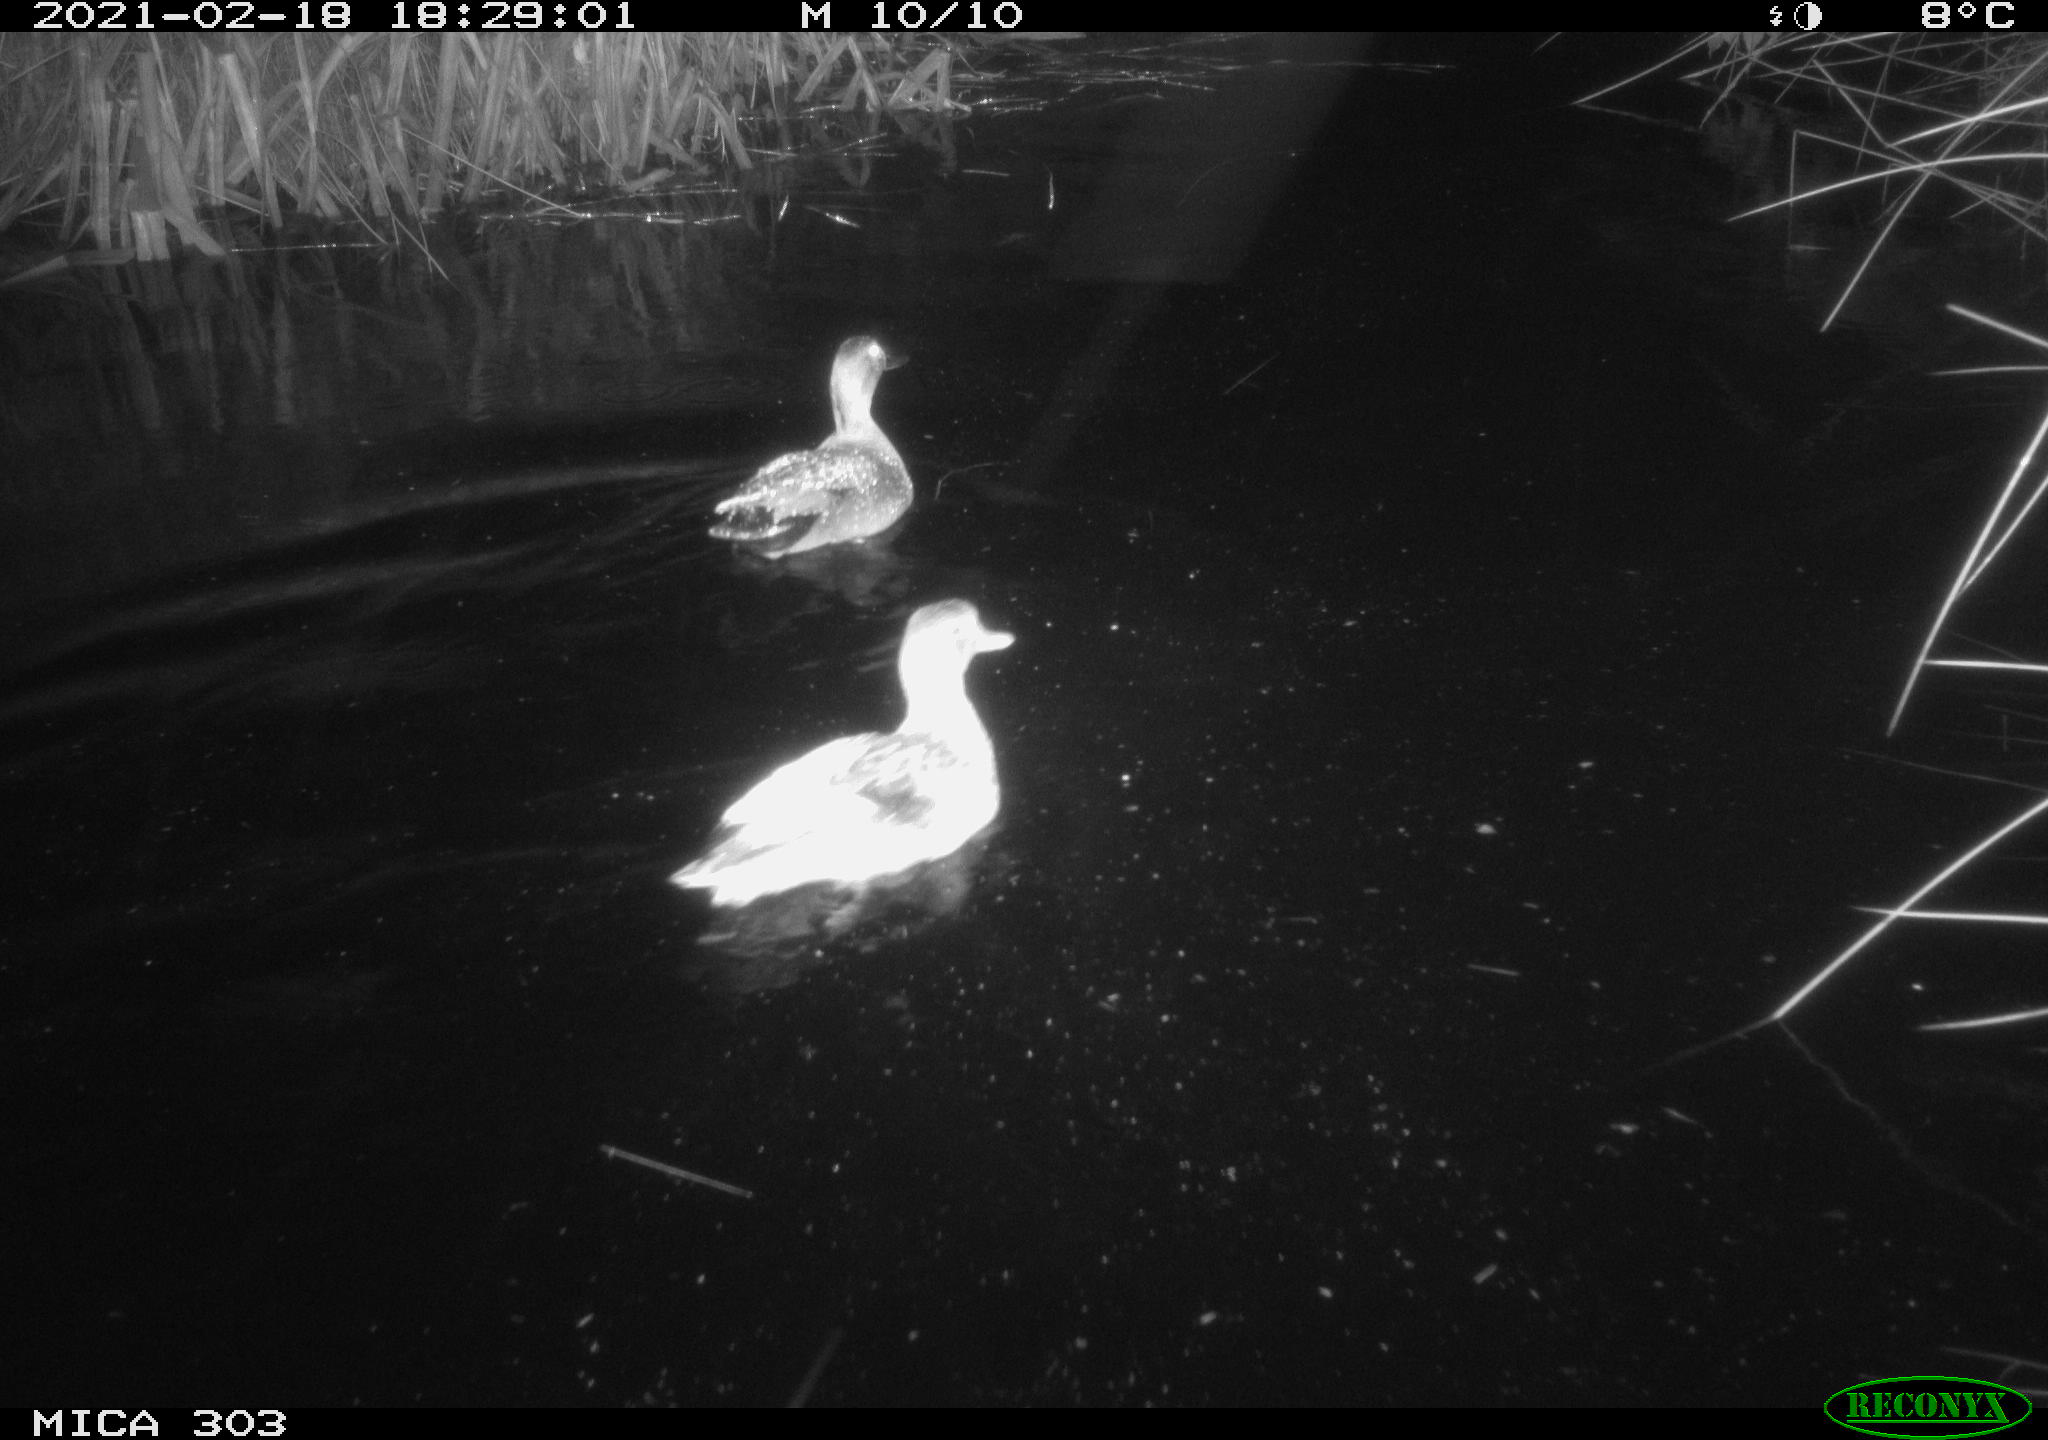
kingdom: Animalia
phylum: Chordata
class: Aves
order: Anseriformes
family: Anatidae
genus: Mareca
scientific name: Mareca strepera
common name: Gadwall
